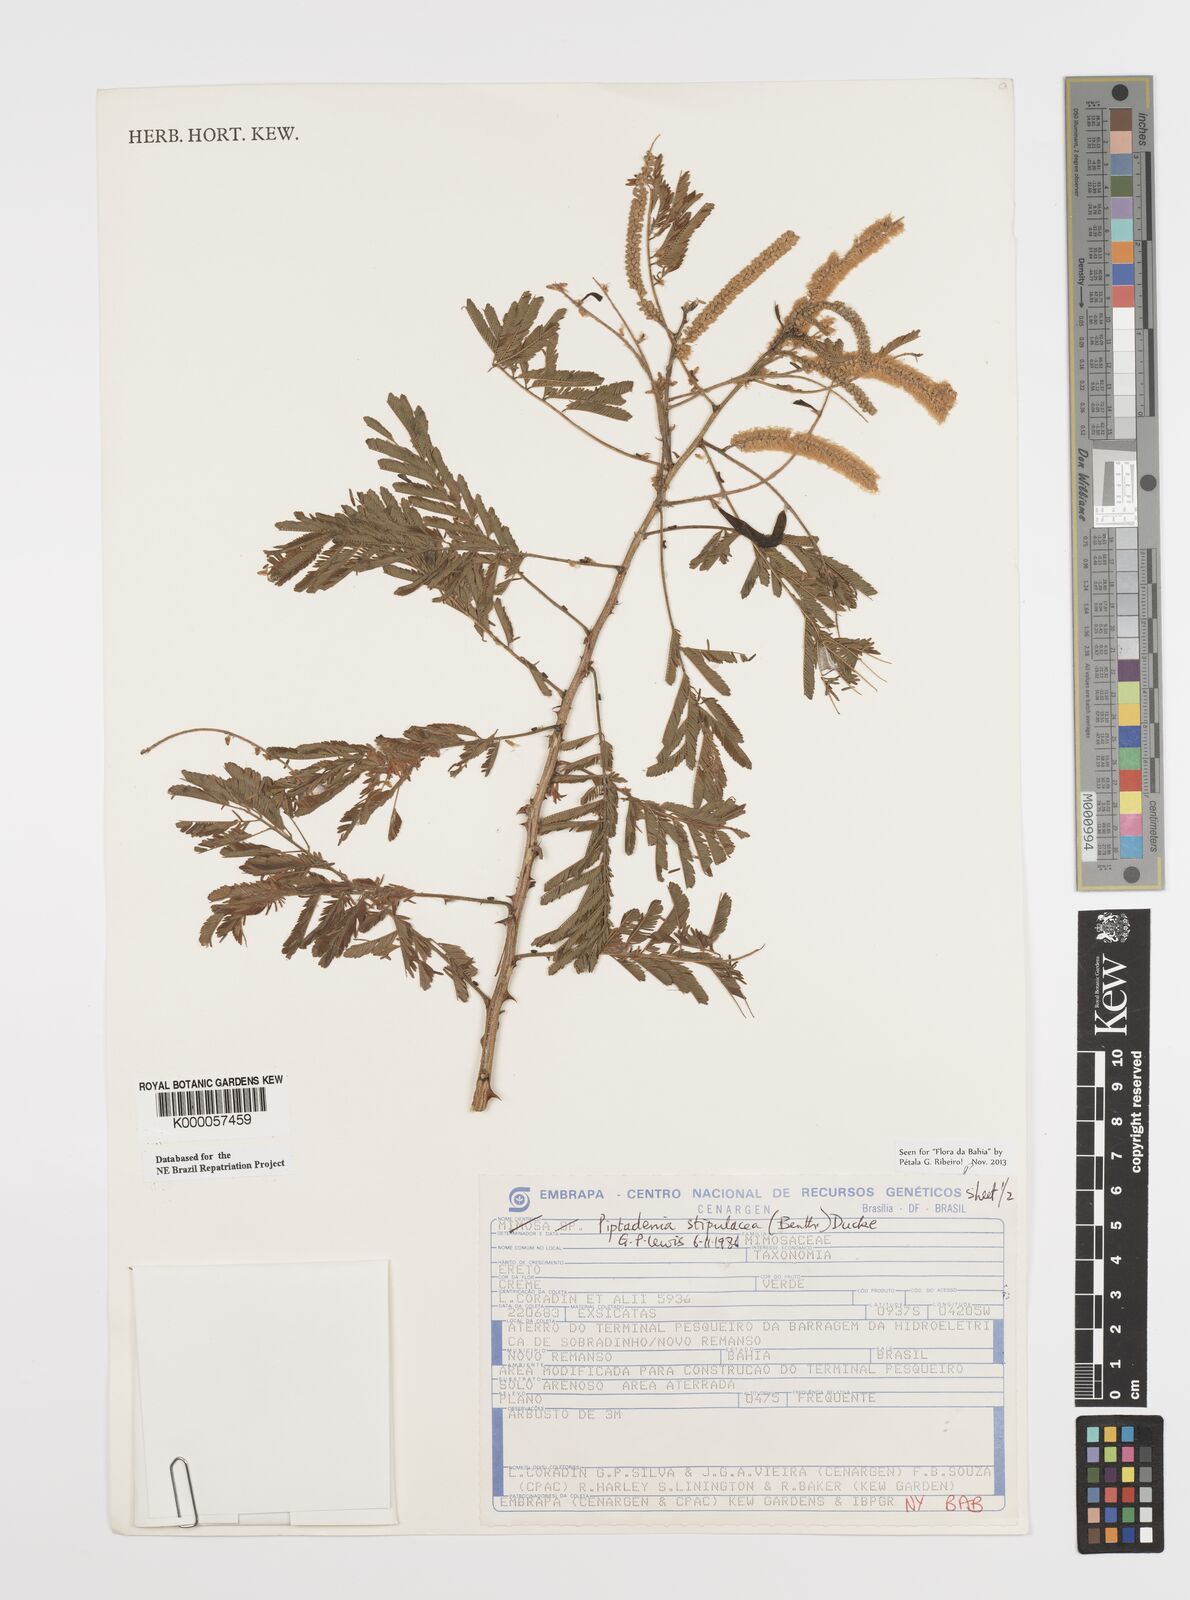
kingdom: Plantae
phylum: Tracheophyta
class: Magnoliopsida
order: Fabales
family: Fabaceae
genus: Piptadenia
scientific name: Piptadenia retusa
